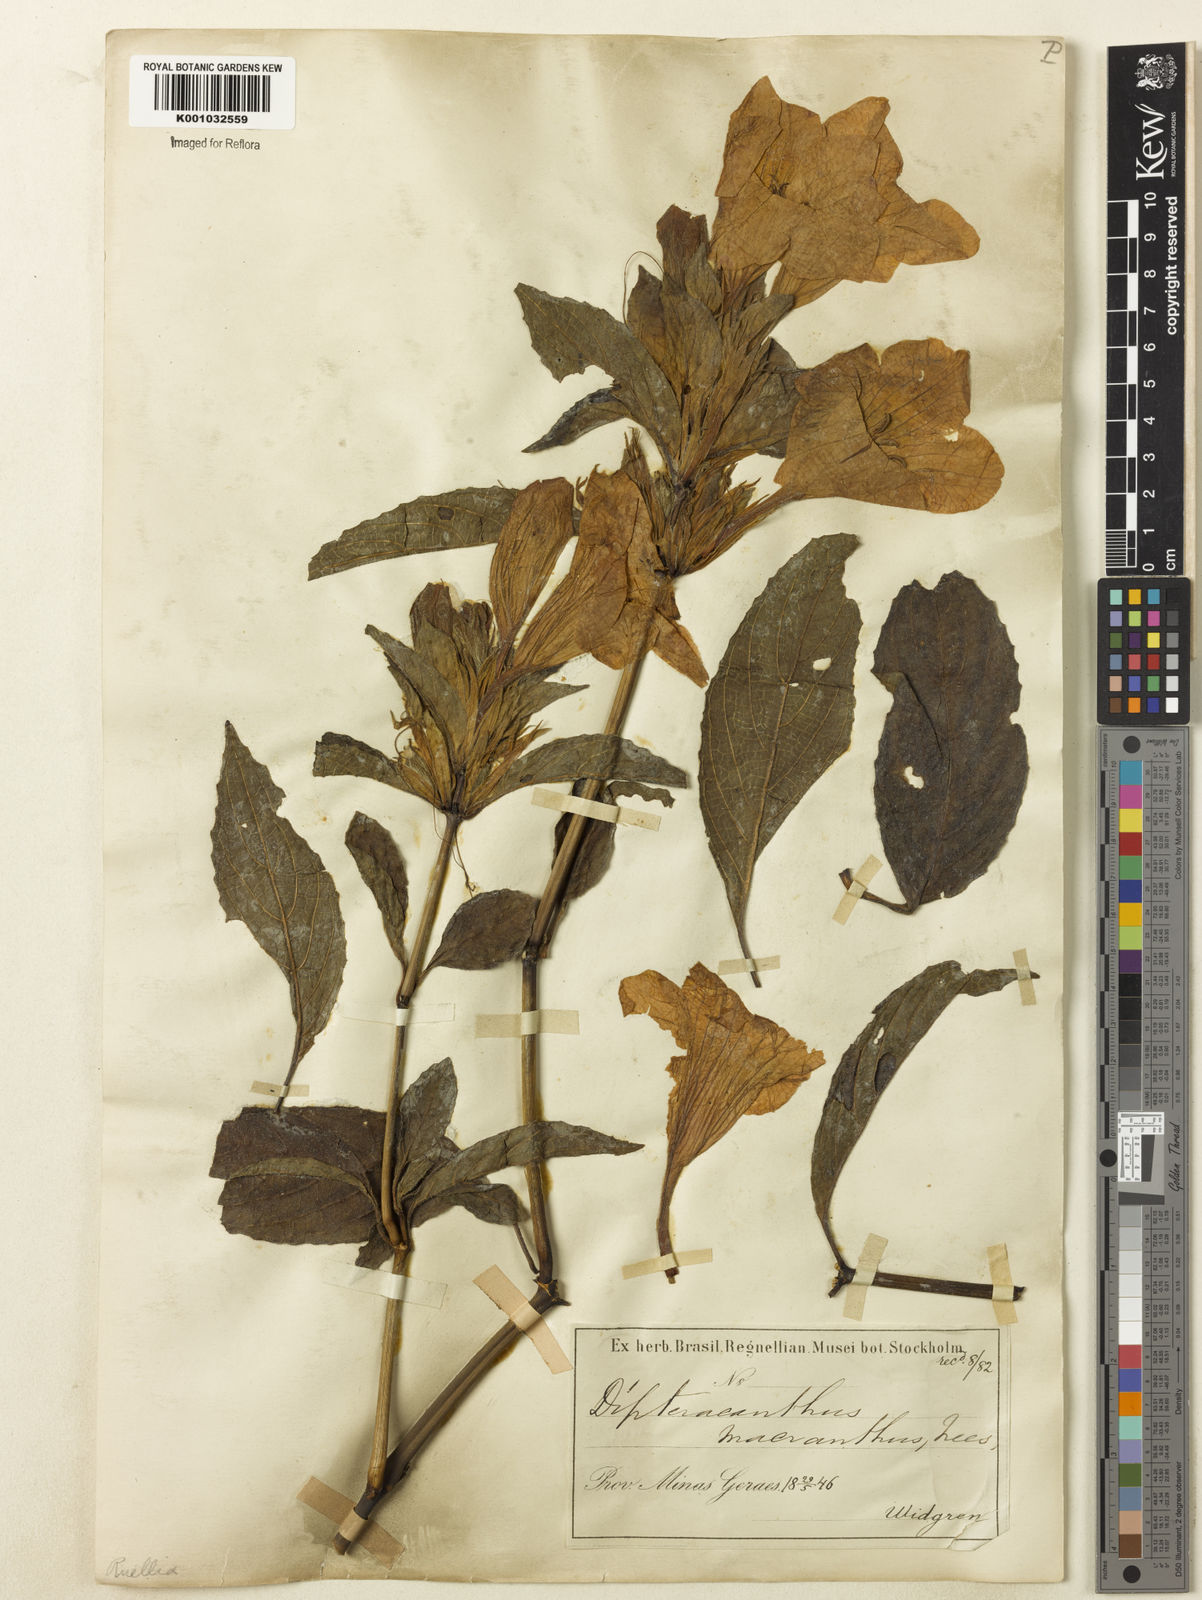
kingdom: Plantae
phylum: Tracheophyta
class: Magnoliopsida
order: Lamiales
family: Acanthaceae
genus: Ruellia
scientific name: Ruellia
